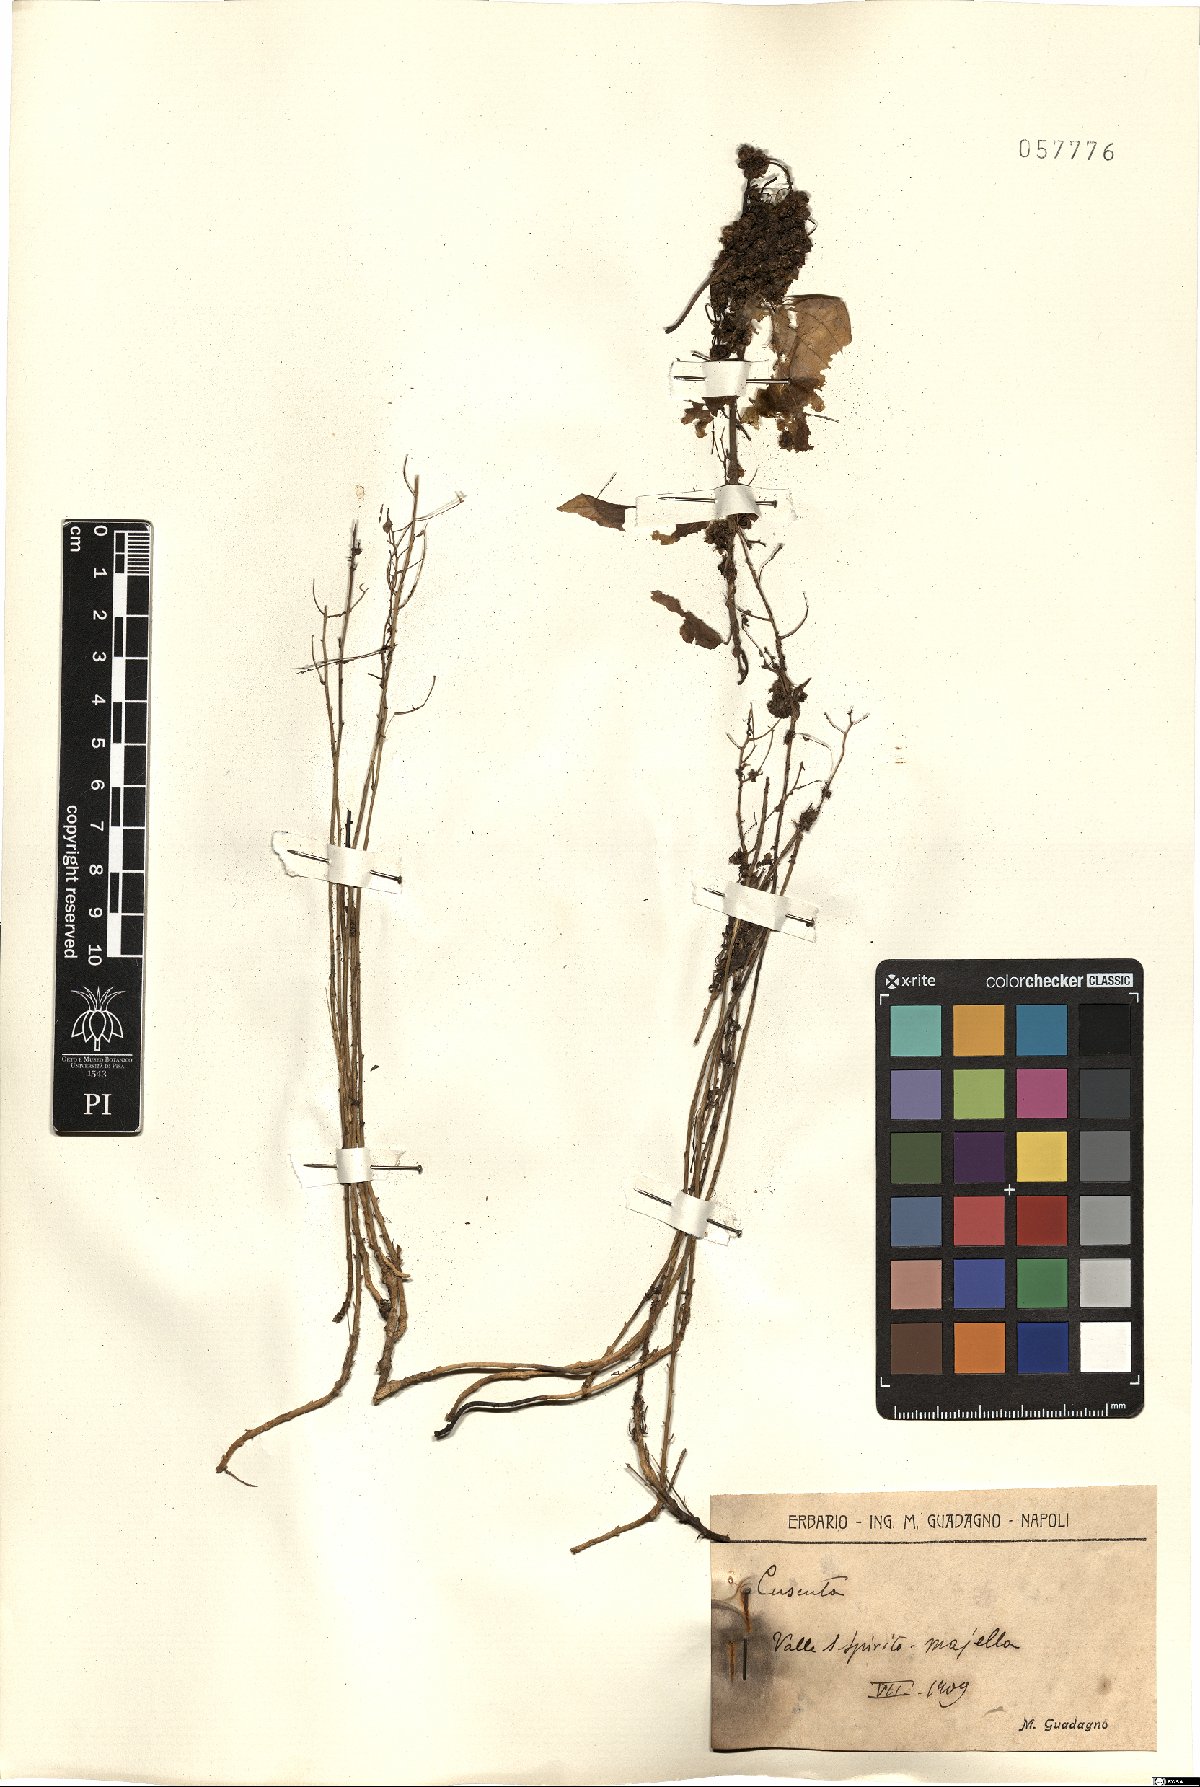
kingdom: Plantae
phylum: Tracheophyta
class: Magnoliopsida
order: Solanales
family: Convolvulaceae
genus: Cuscuta
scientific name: Cuscuta
